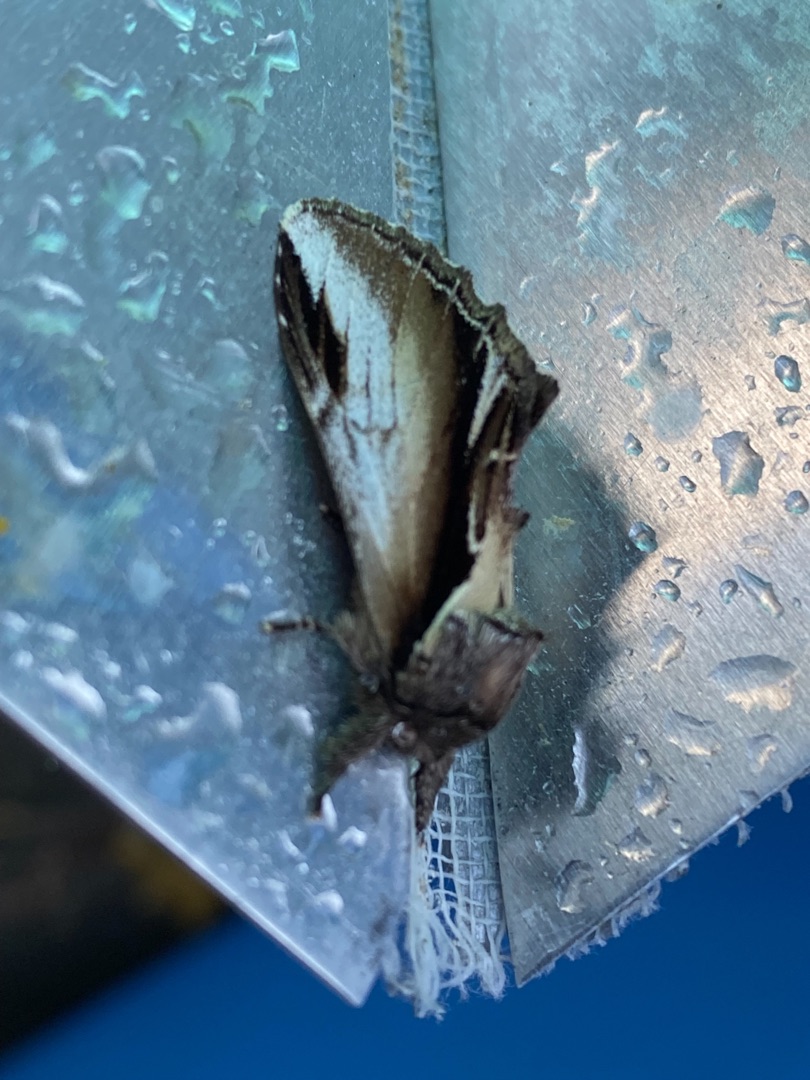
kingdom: Animalia
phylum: Arthropoda
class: Insecta
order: Lepidoptera
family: Notodontidae
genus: Pheosia
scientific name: Pheosia gnoma
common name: Birkeporcelænsspinder
